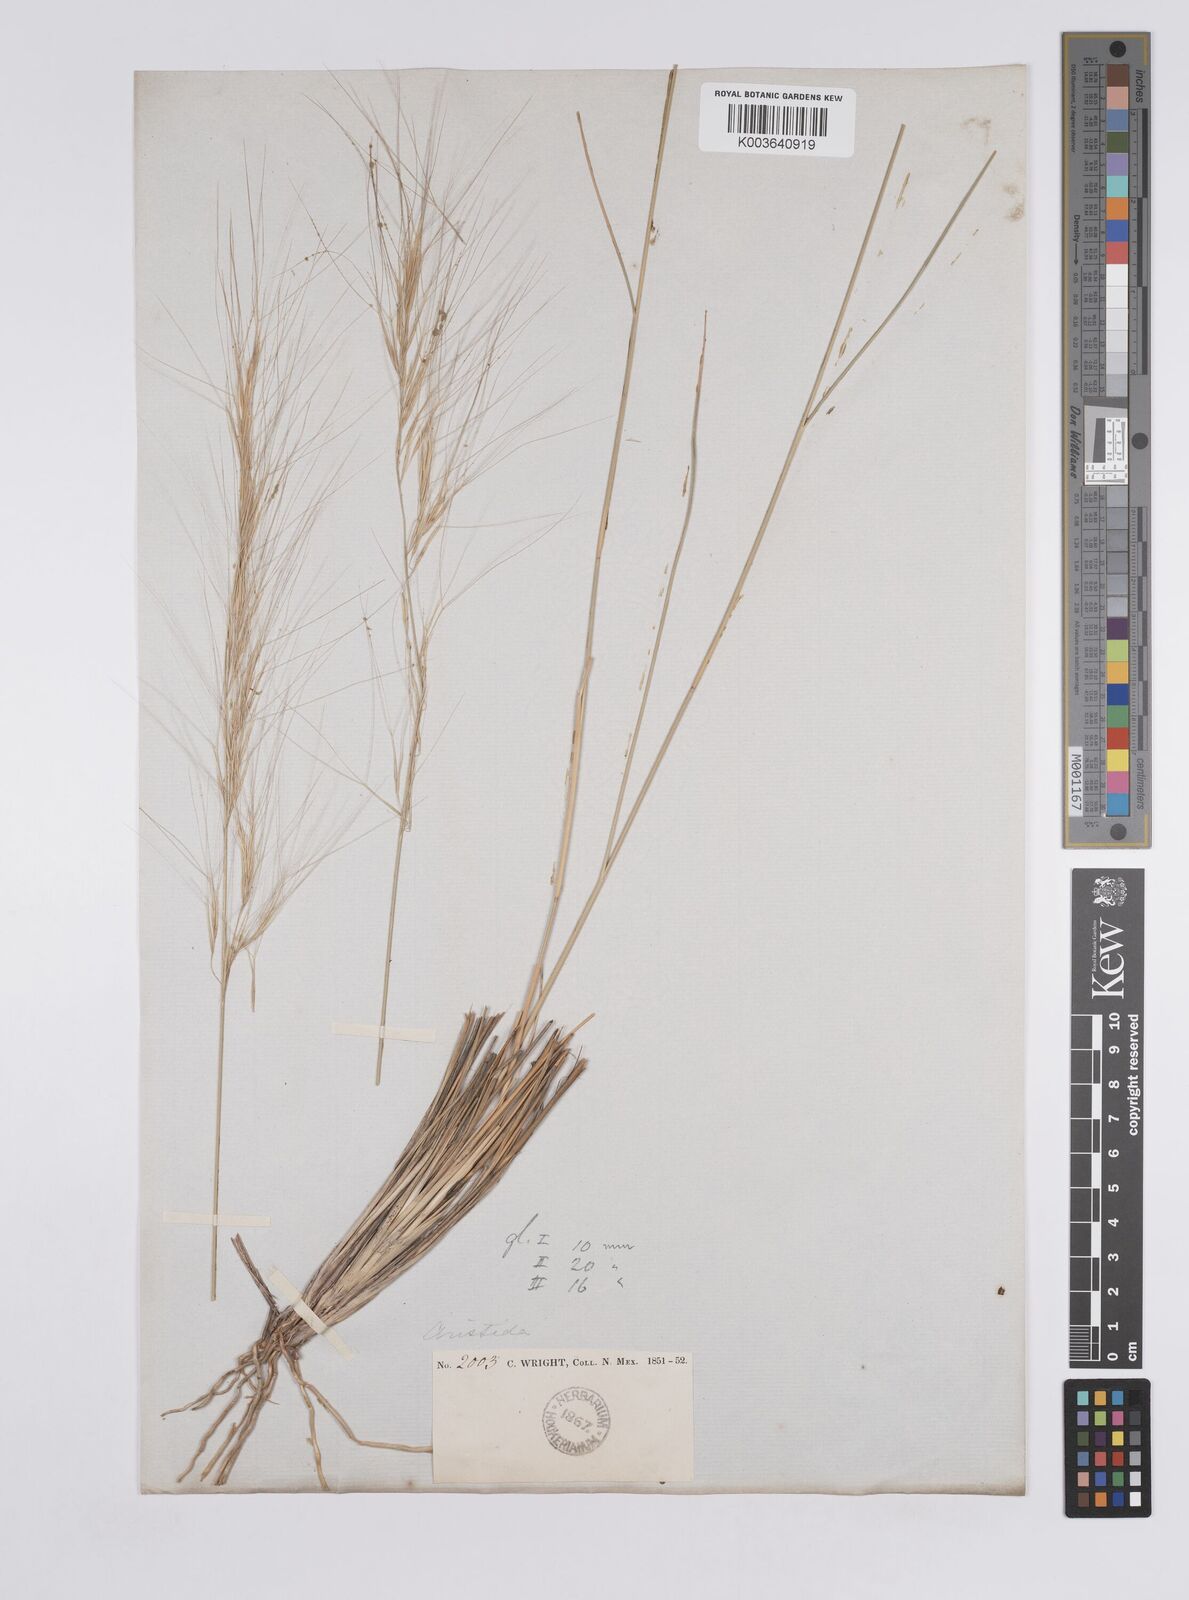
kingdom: Plantae
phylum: Tracheophyta
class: Liliopsida
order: Poales
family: Poaceae
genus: Aristida
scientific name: Aristida purpurea
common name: Purple threeawn
